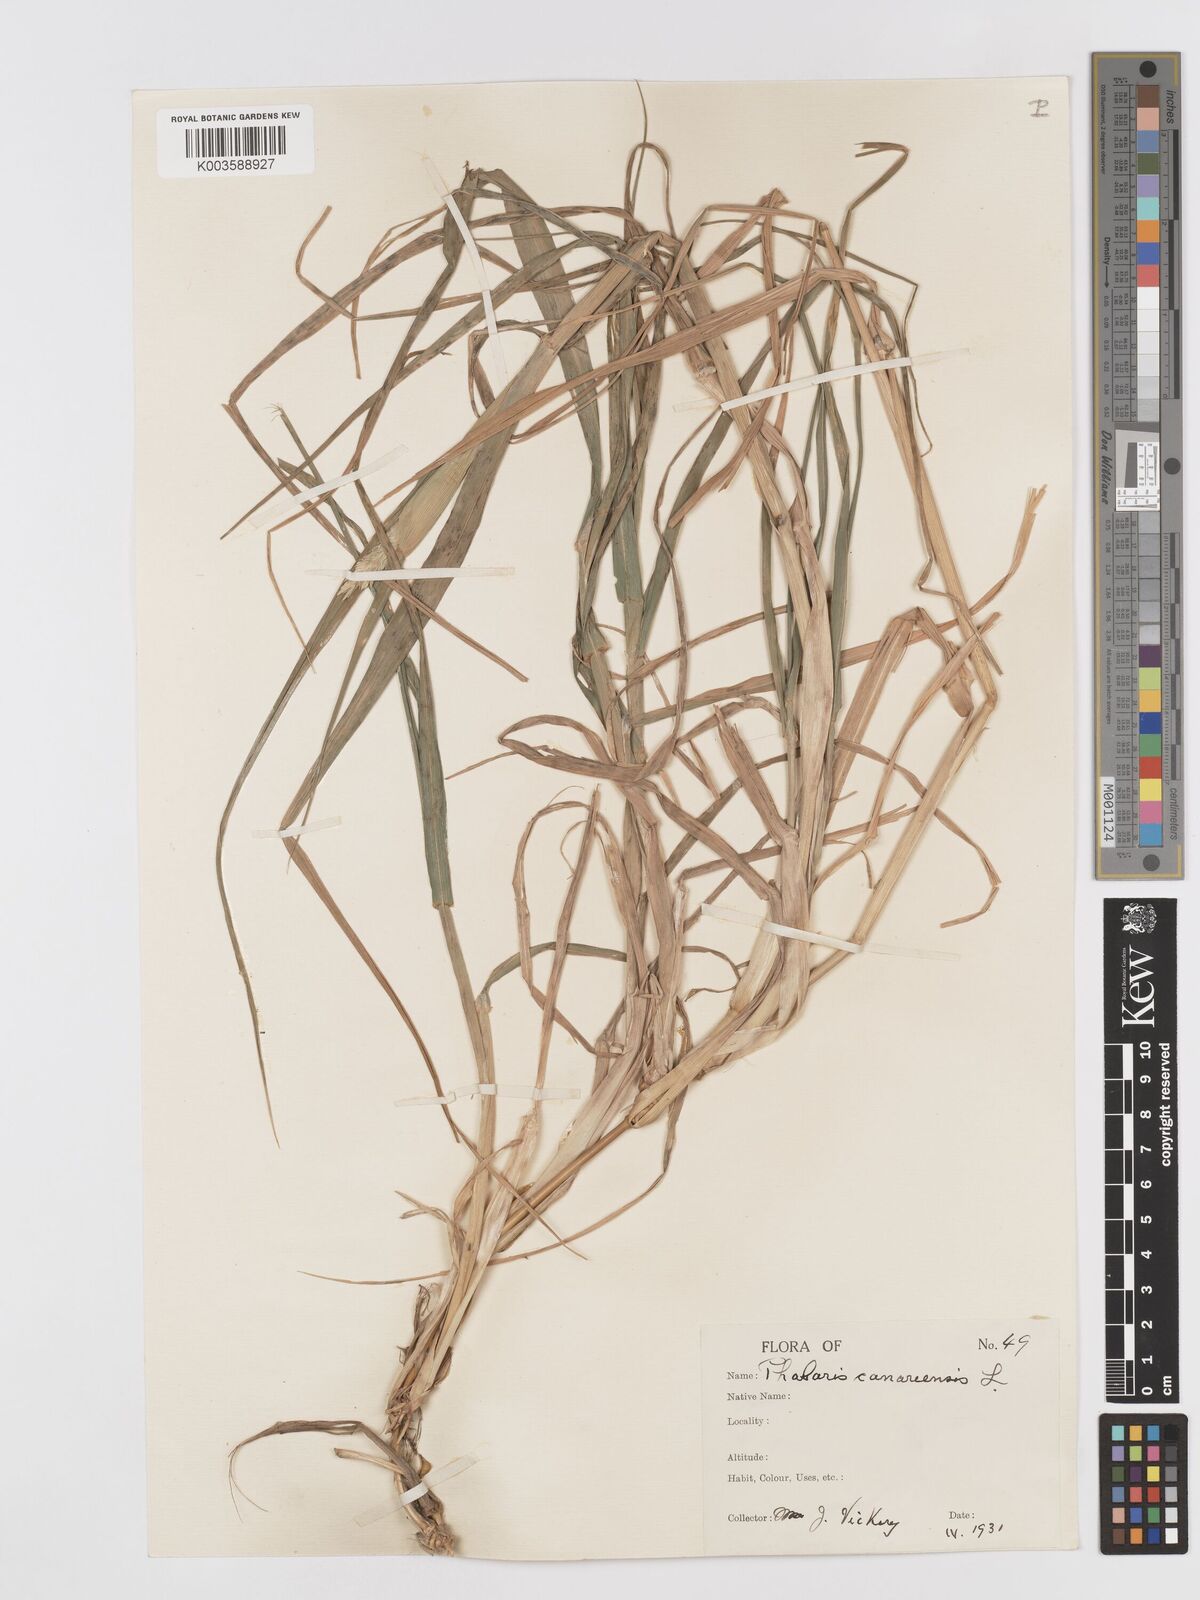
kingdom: Plantae
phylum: Tracheophyta
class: Liliopsida
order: Poales
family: Poaceae
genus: Phalaris
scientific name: Phalaris canariensis
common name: Annual canarygrass
